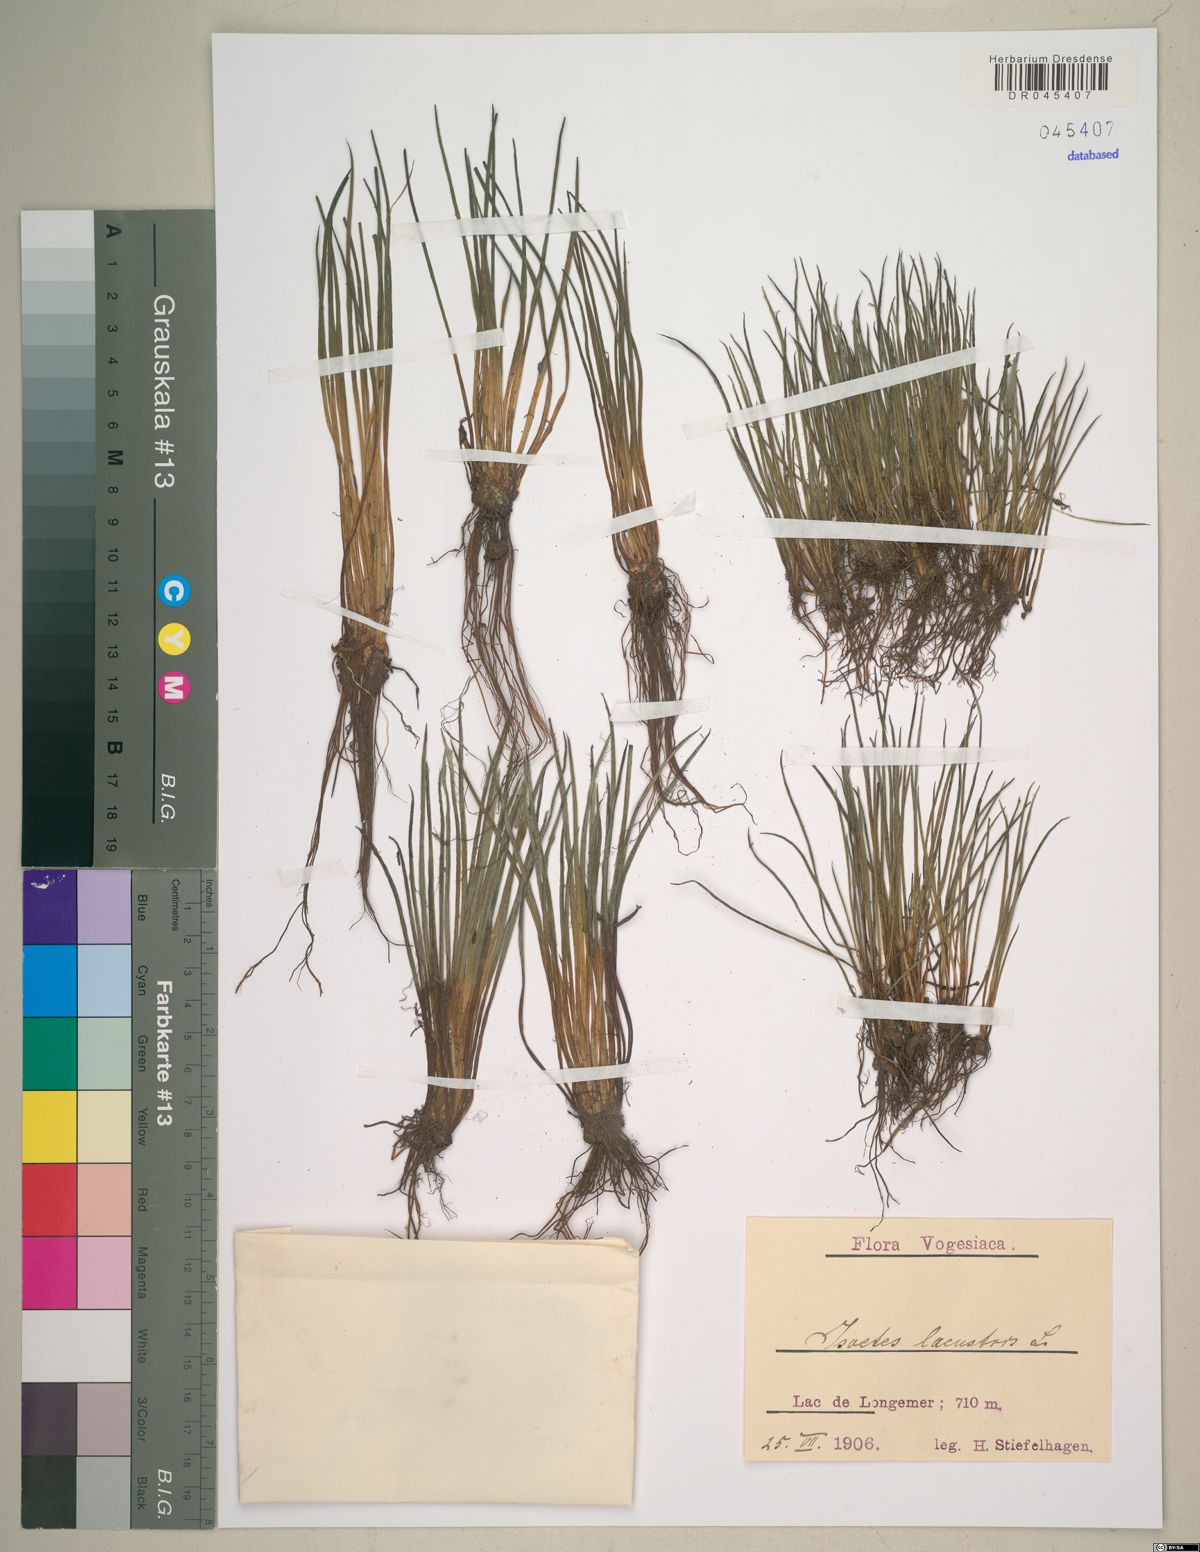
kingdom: Plantae
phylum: Tracheophyta
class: Lycopodiopsida
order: Isoetales
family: Isoetaceae
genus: Isoetes
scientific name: Isoetes lacustris
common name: Common quillwort
